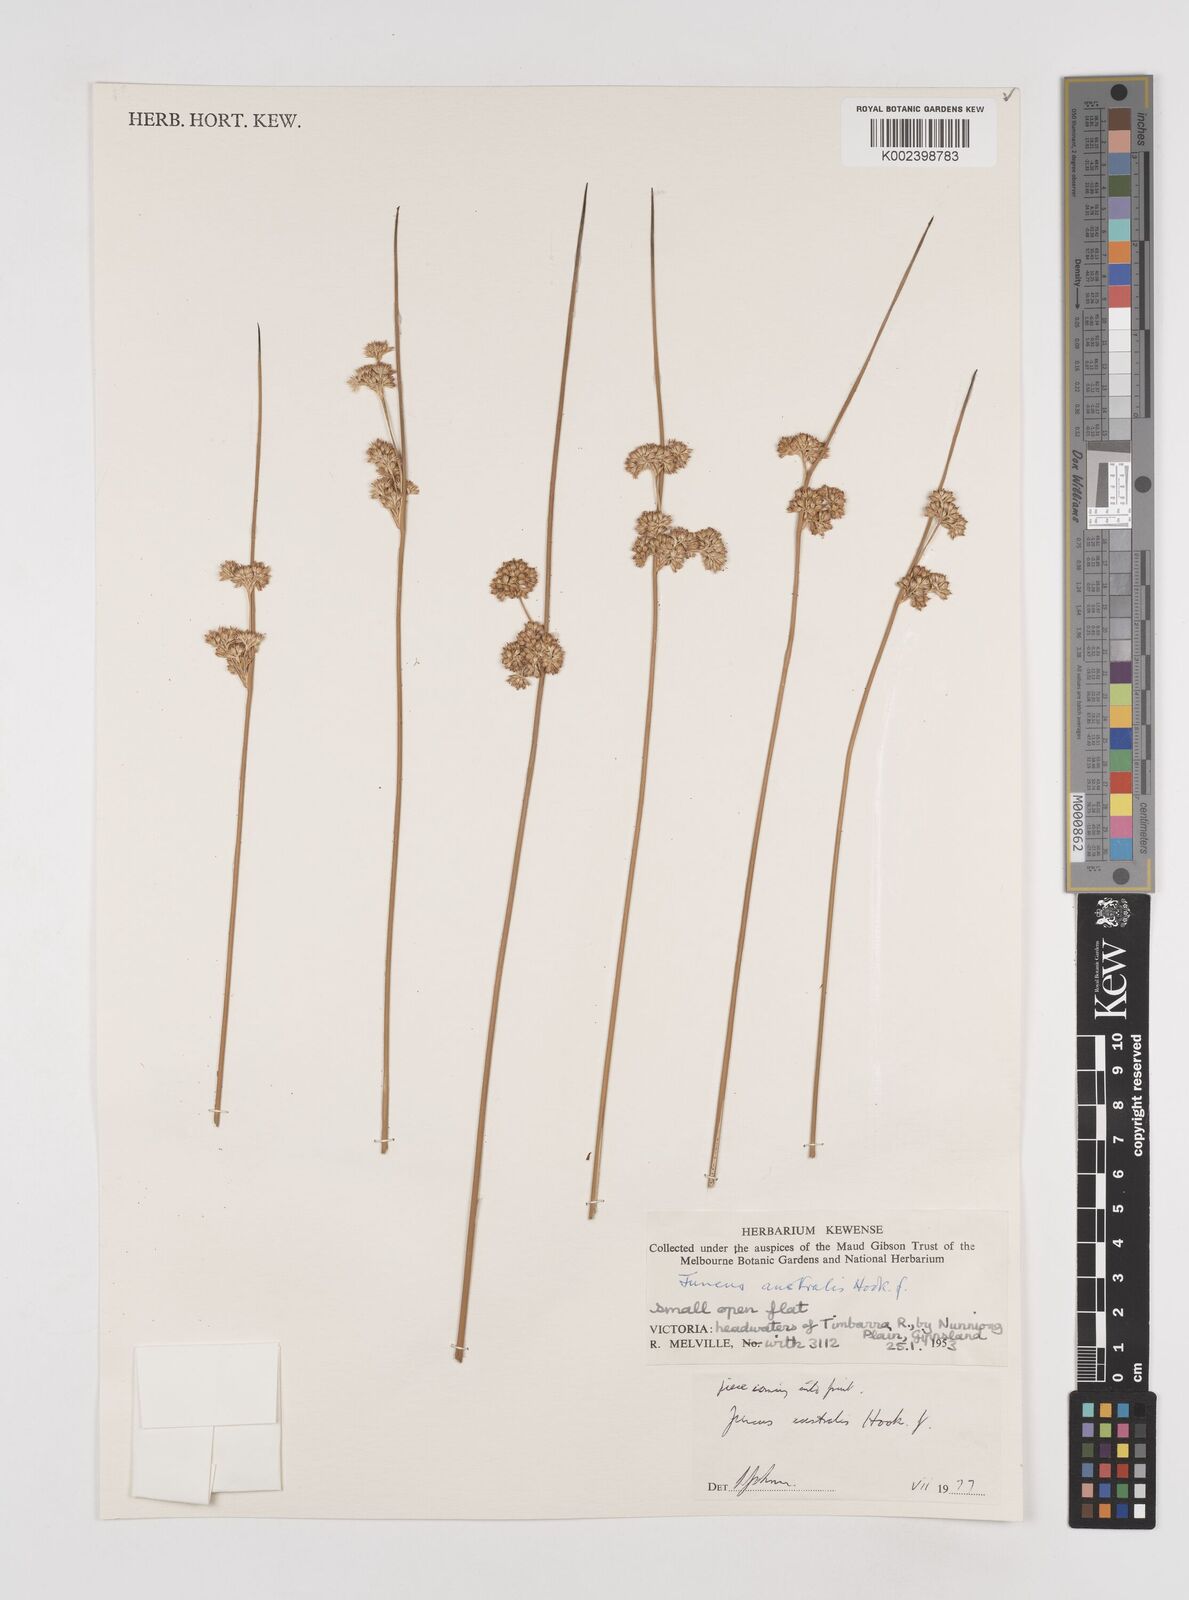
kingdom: Plantae
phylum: Tracheophyta
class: Liliopsida
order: Poales
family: Juncaceae
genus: Juncus
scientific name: Juncus australis
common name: Austral rush
